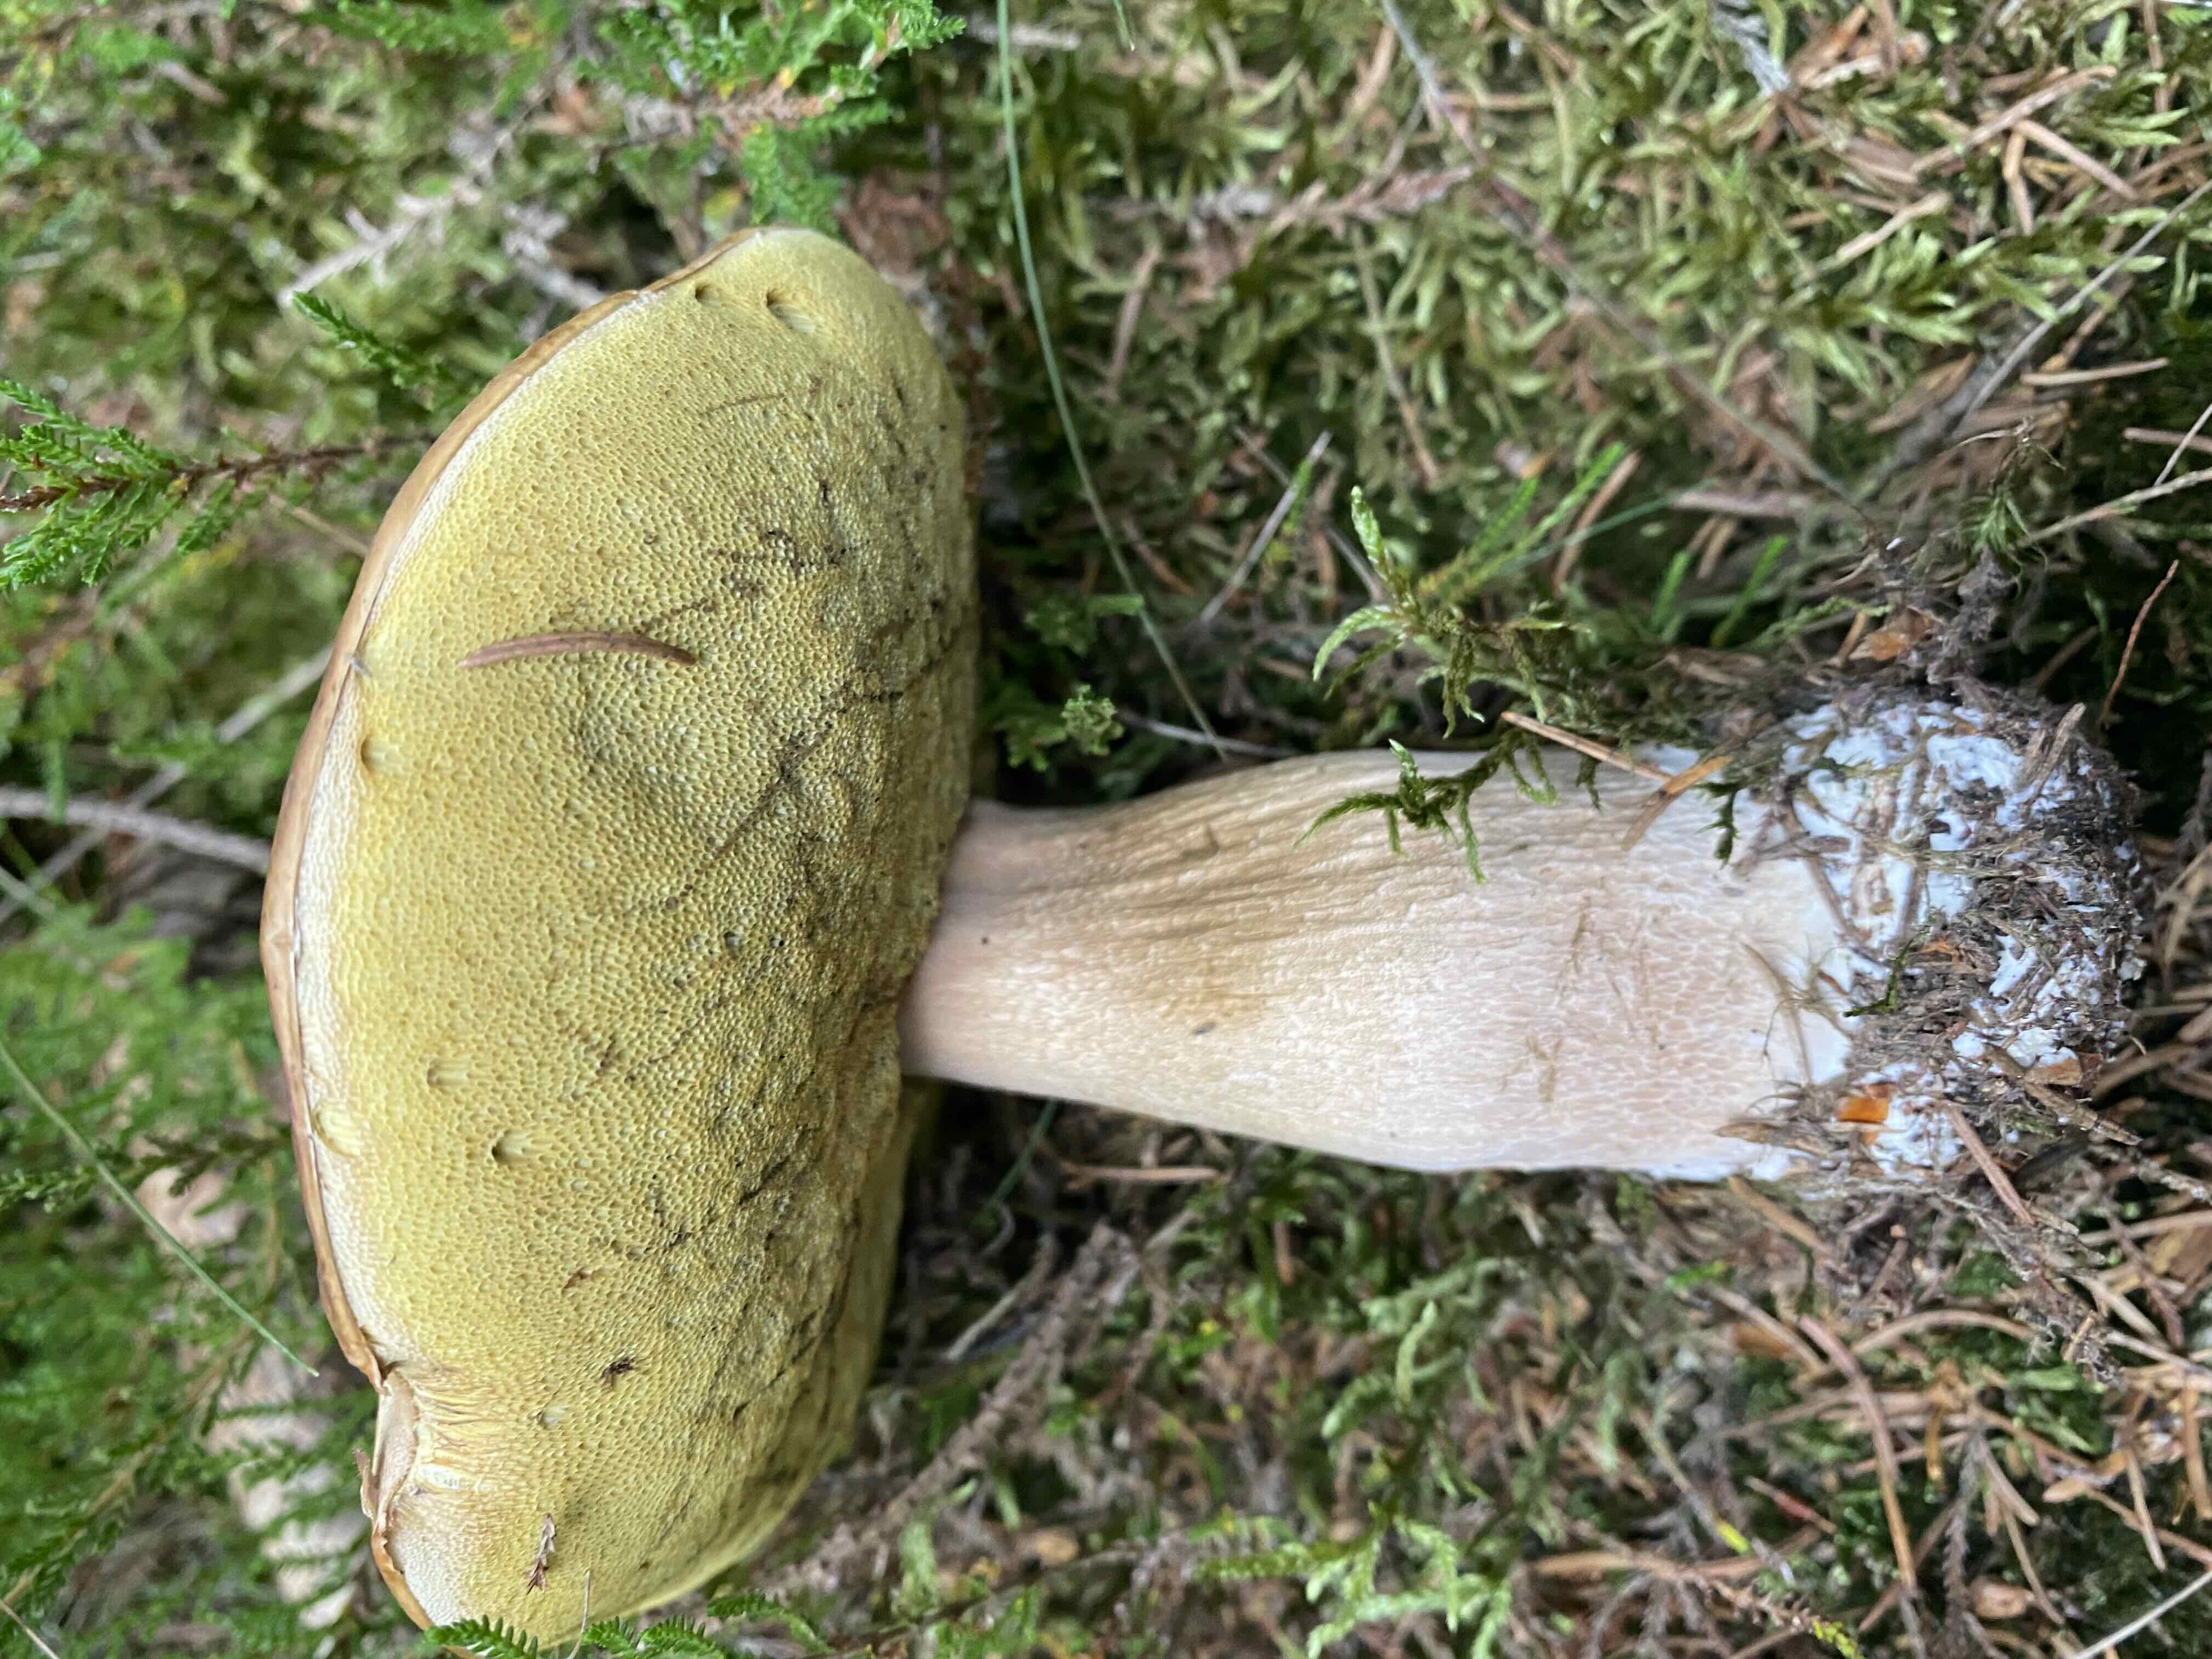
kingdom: Fungi
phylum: Basidiomycota
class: Agaricomycetes
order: Boletales
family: Boletaceae
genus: Boletus
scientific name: Boletus edulis
